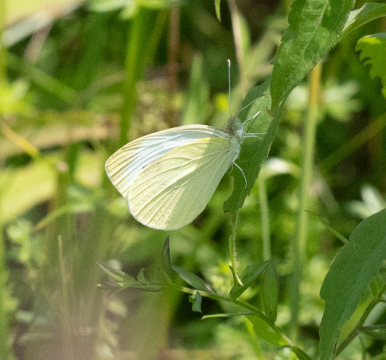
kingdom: Animalia
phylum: Arthropoda
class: Insecta
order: Lepidoptera
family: Pieridae
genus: Pieris
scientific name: Pieris rapae
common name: Cabbage White
